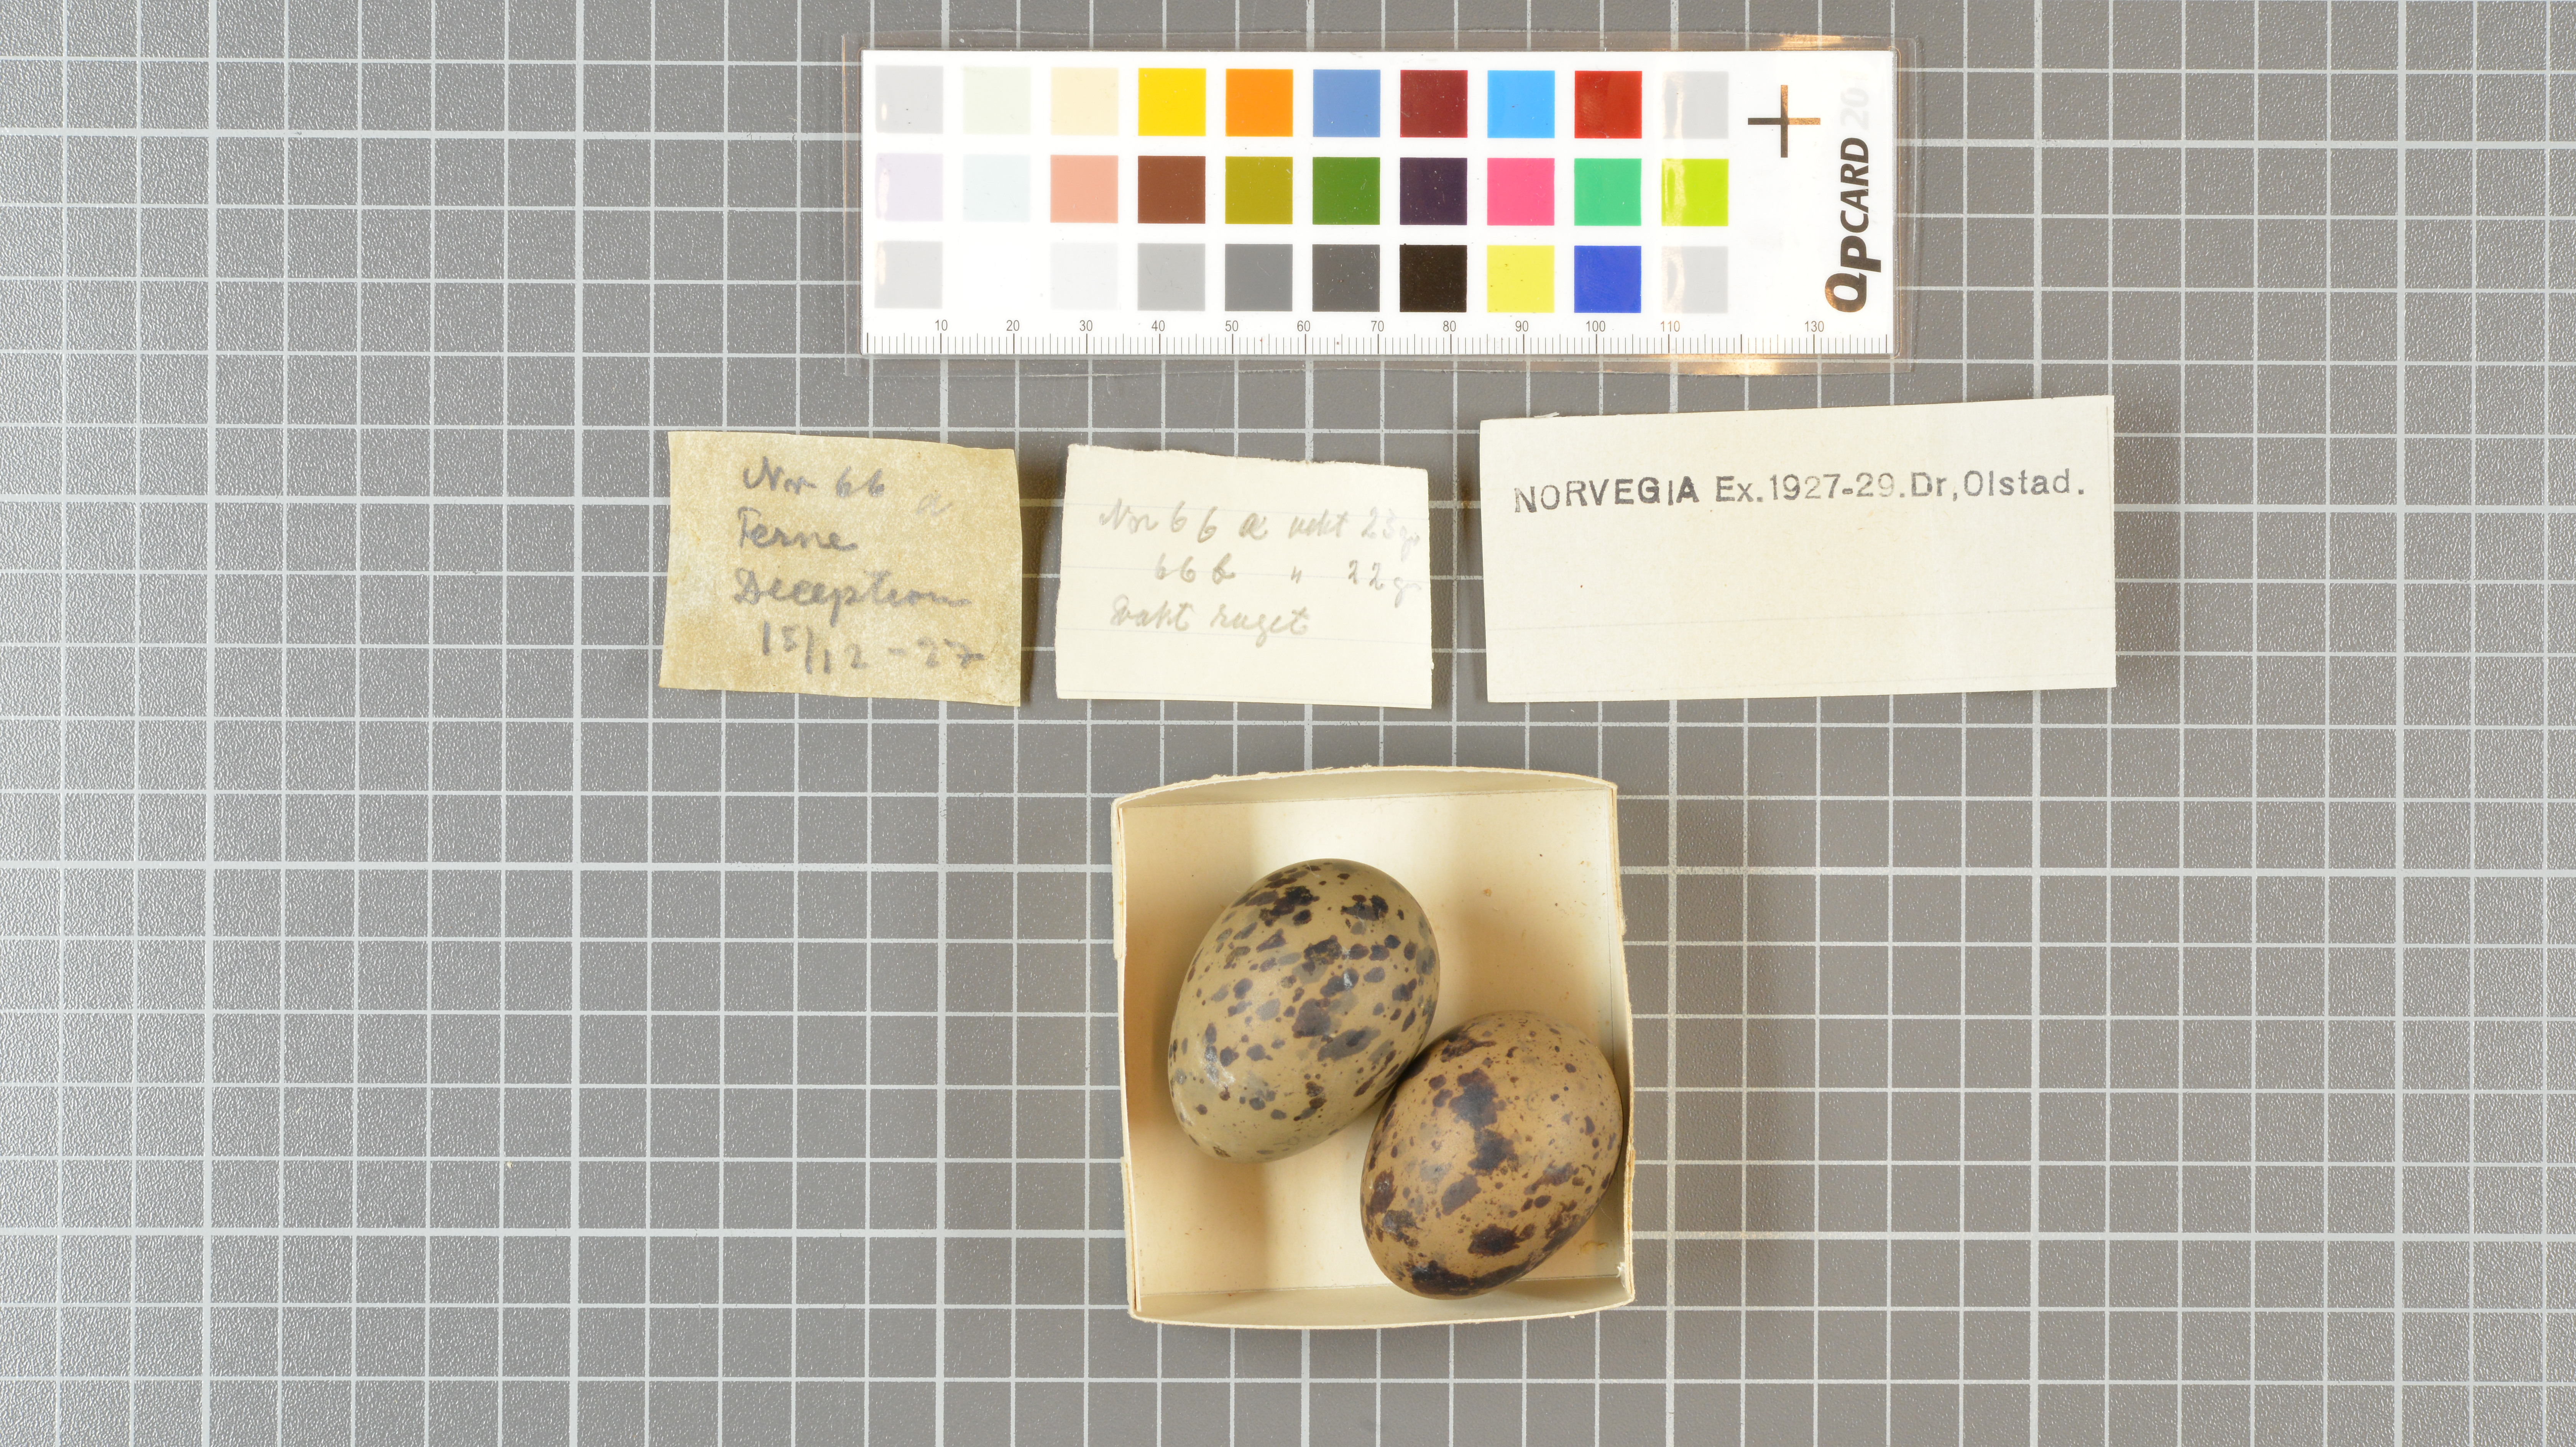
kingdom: Animalia
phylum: Chordata
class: Aves
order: Charadriiformes
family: Laridae
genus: Sterna
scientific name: Sterna vittata
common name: Antarctic tern
